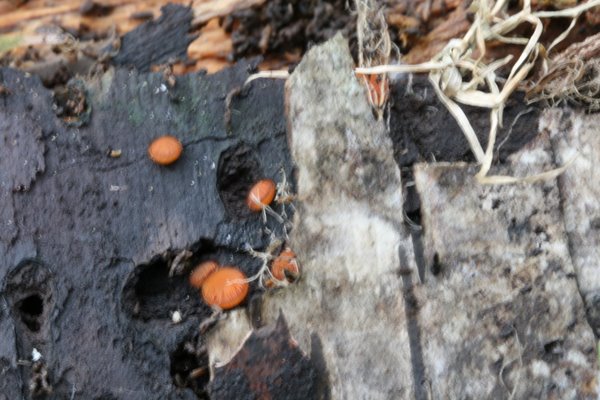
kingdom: Fungi
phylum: Ascomycota
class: Pezizomycetes
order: Pezizales
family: Pyronemataceae
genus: Scutellinia
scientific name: Scutellinia scutellata
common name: frynset skjoldbæger
